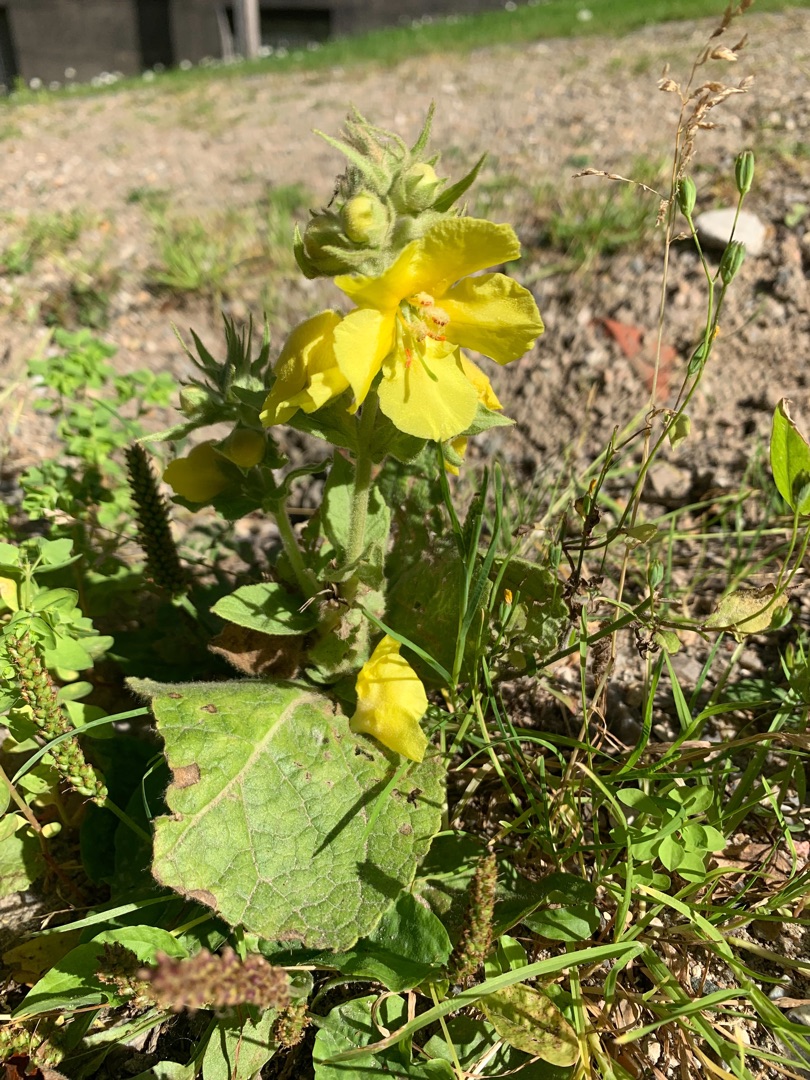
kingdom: Plantae
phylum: Tracheophyta
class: Magnoliopsida
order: Lamiales
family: Scrophulariaceae
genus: Verbascum
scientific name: Verbascum
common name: Kongelysslægten
